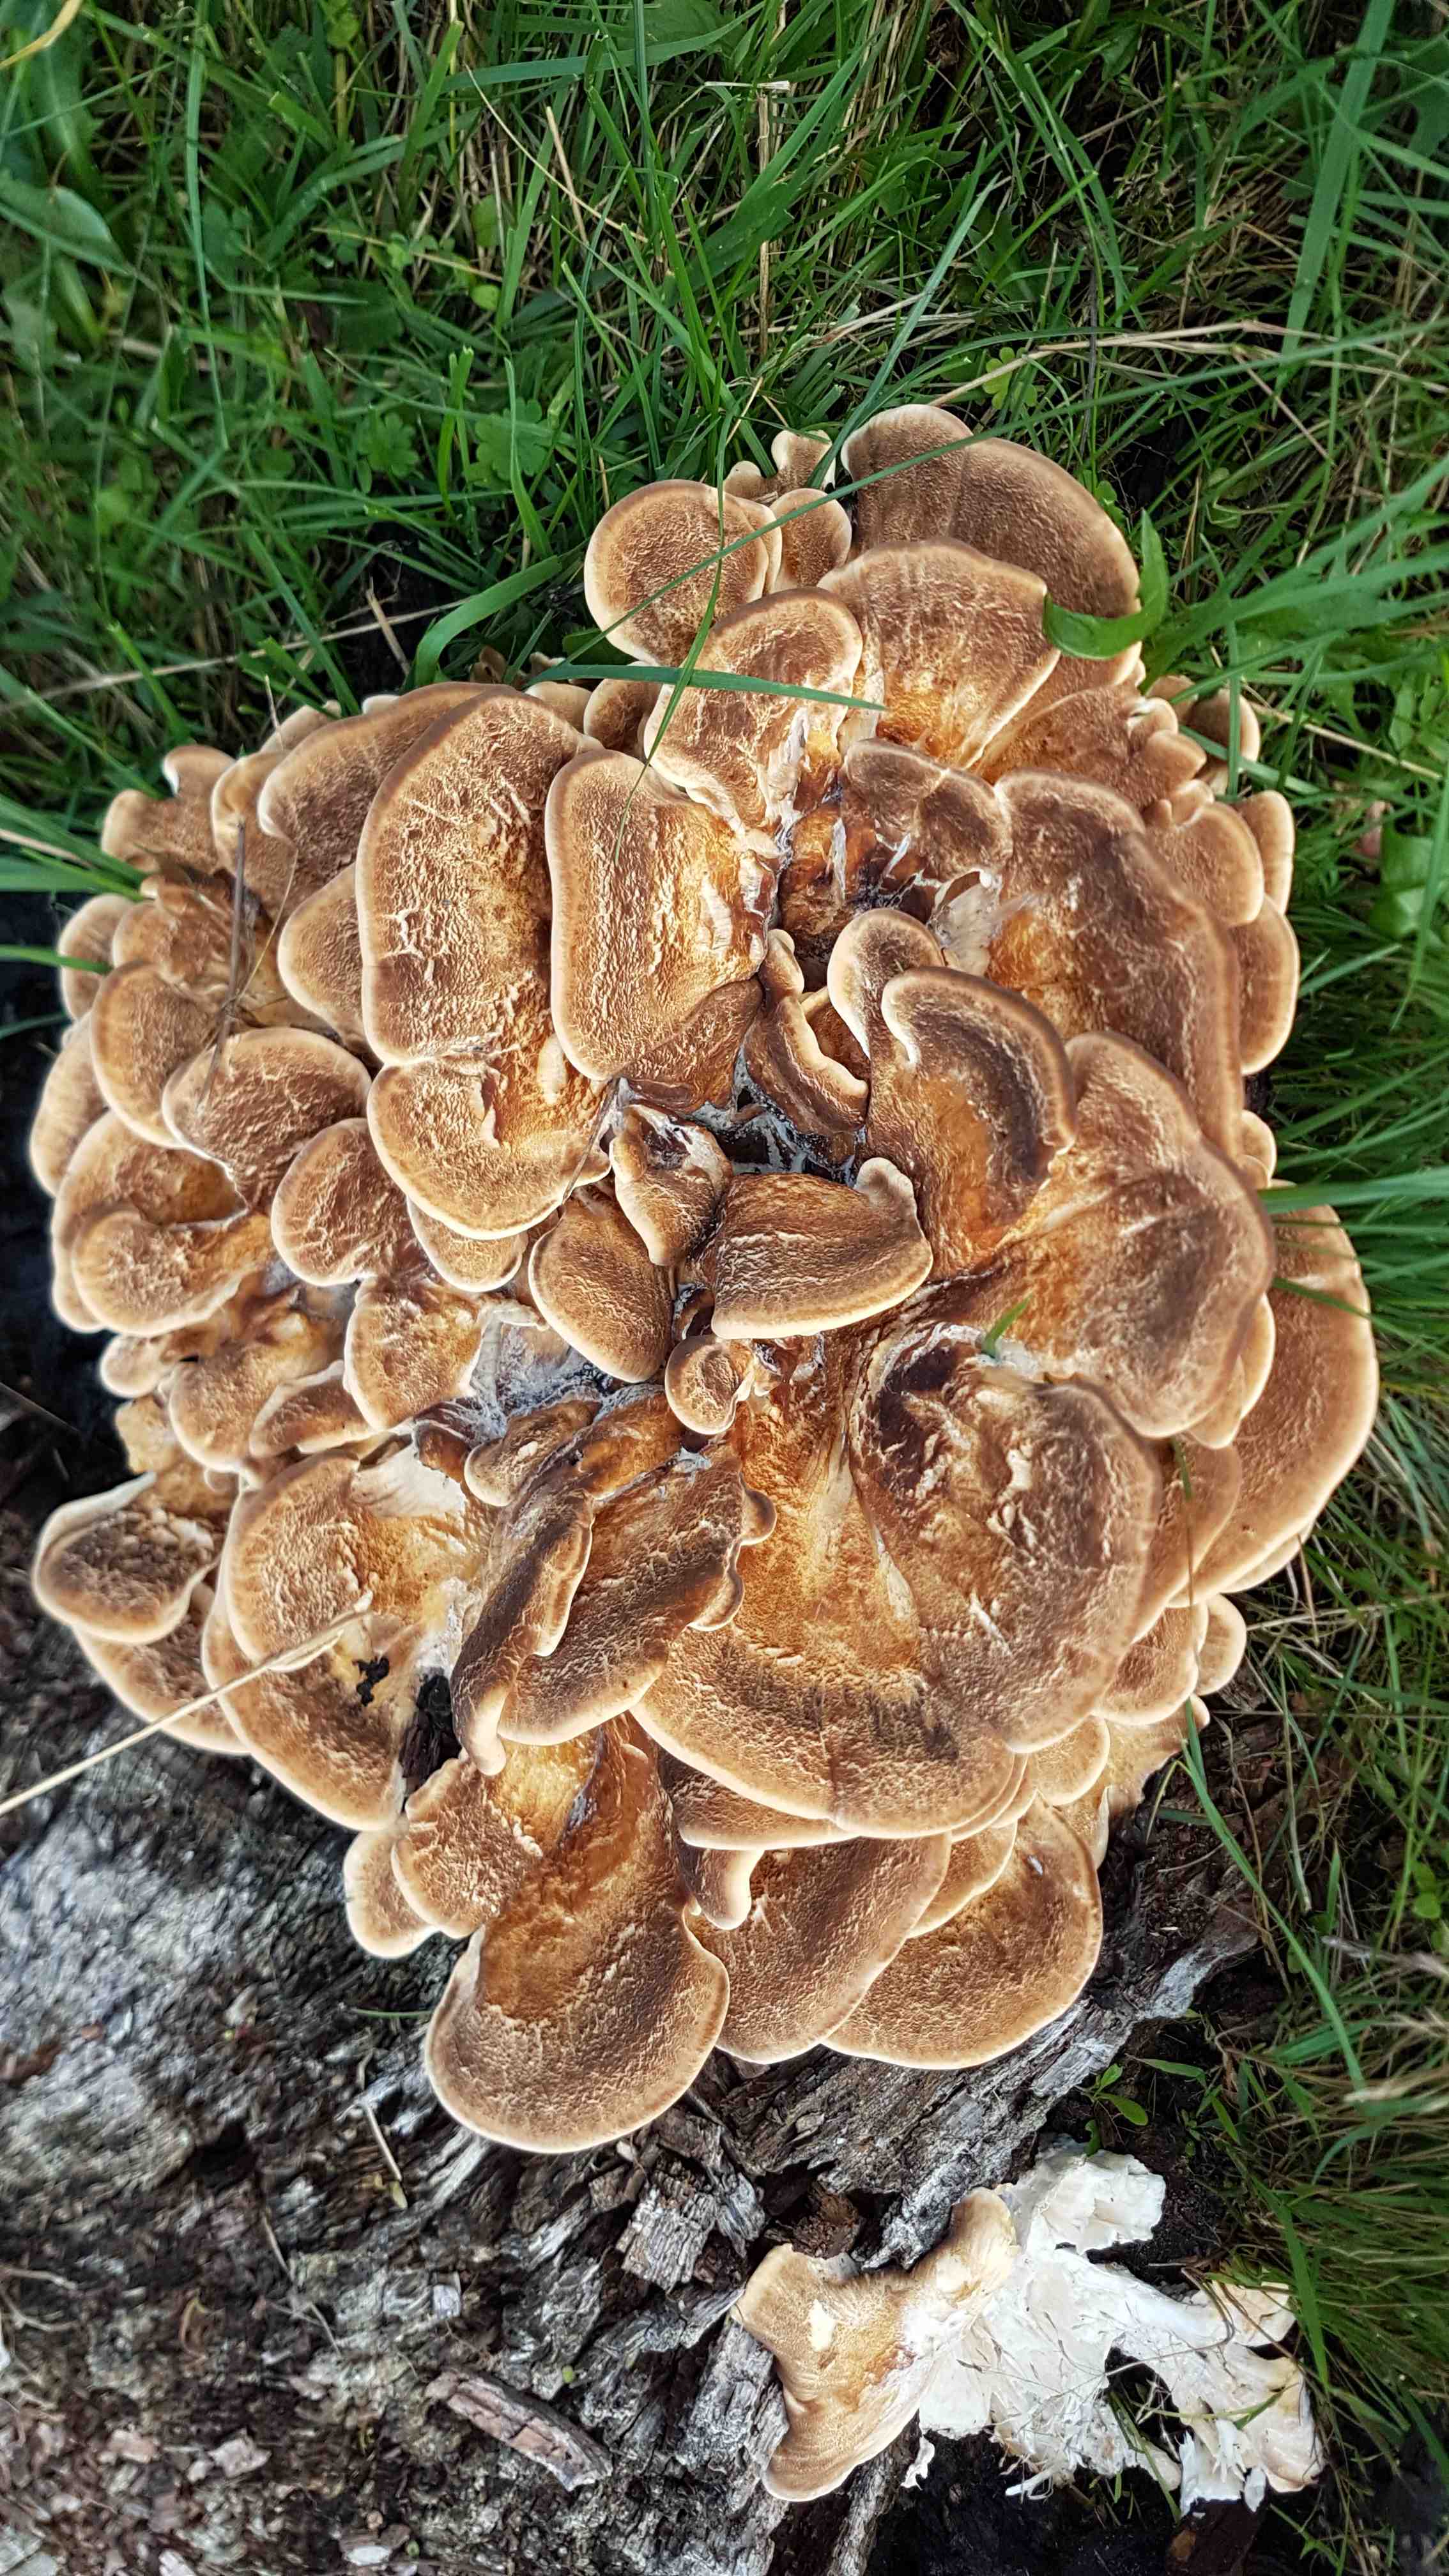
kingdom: Fungi
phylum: Basidiomycota
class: Agaricomycetes
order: Polyporales
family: Meripilaceae
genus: Meripilus
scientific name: Meripilus giganteus
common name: kæmpeporesvamp
